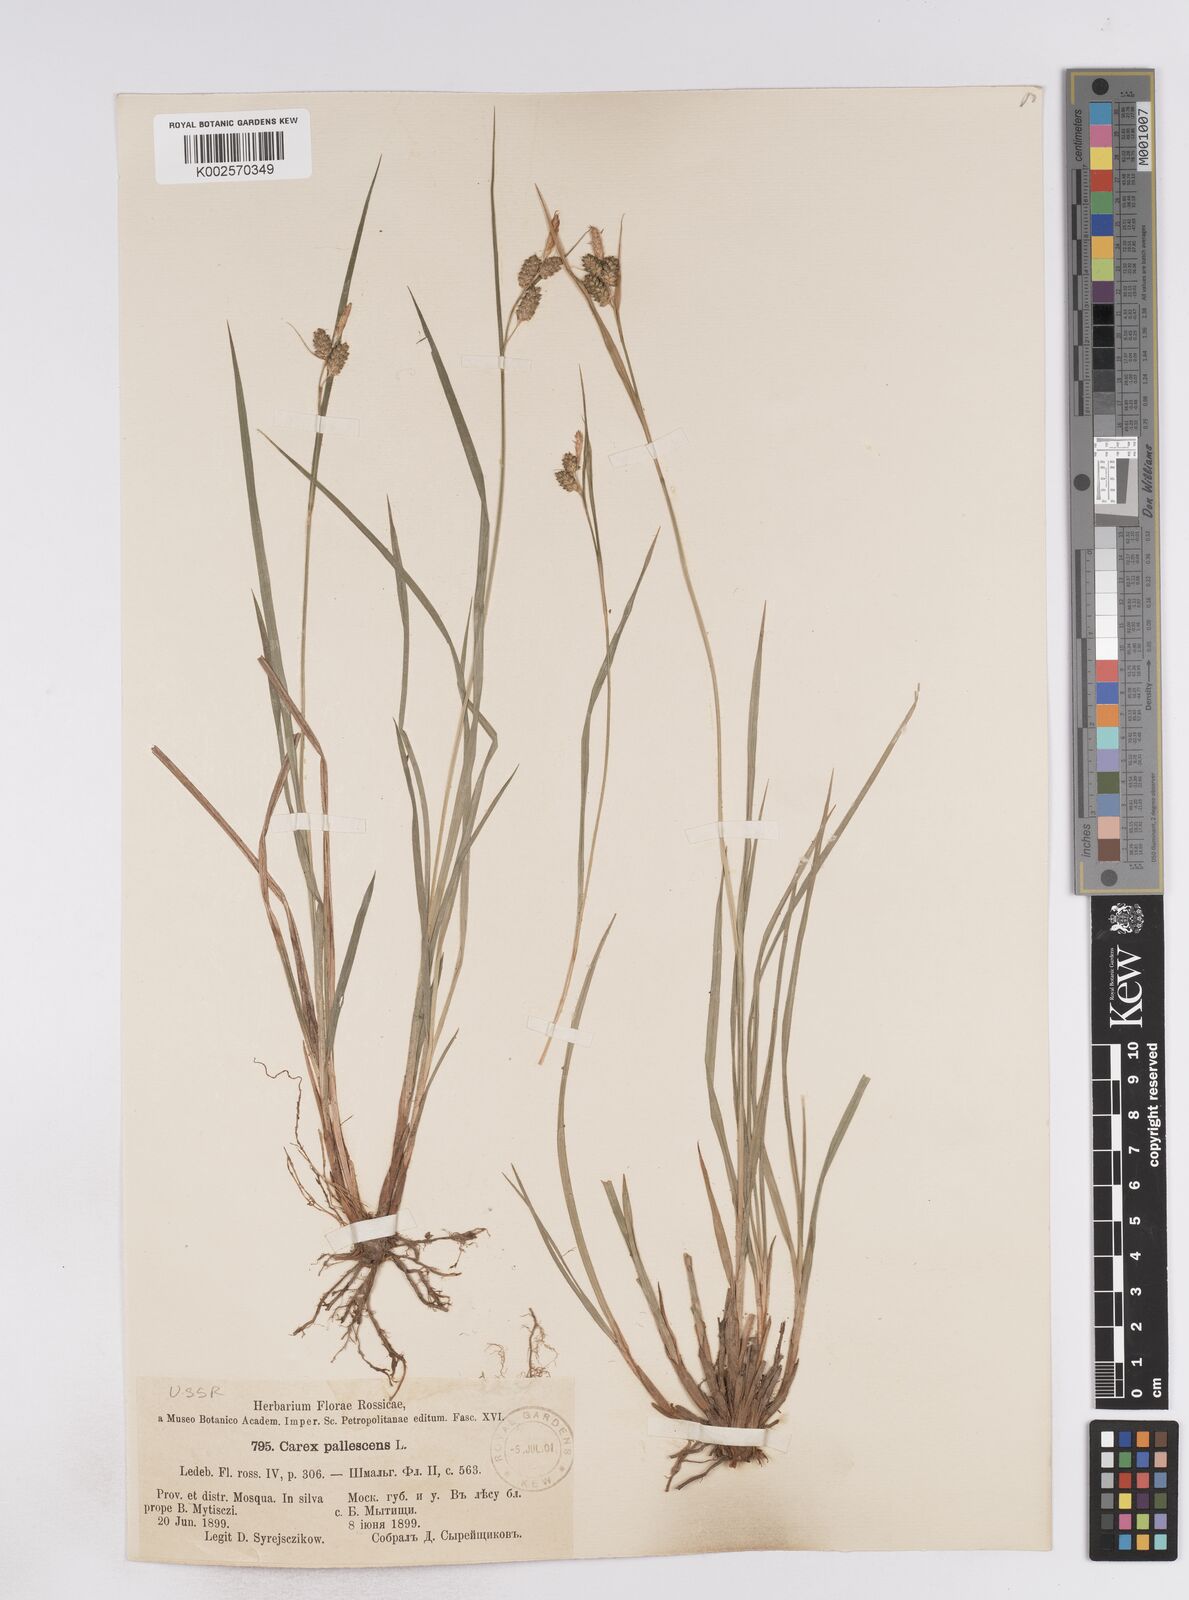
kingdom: Plantae
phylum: Tracheophyta
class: Liliopsida
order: Poales
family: Cyperaceae
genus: Carex
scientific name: Carex pallescens
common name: Pale sedge
